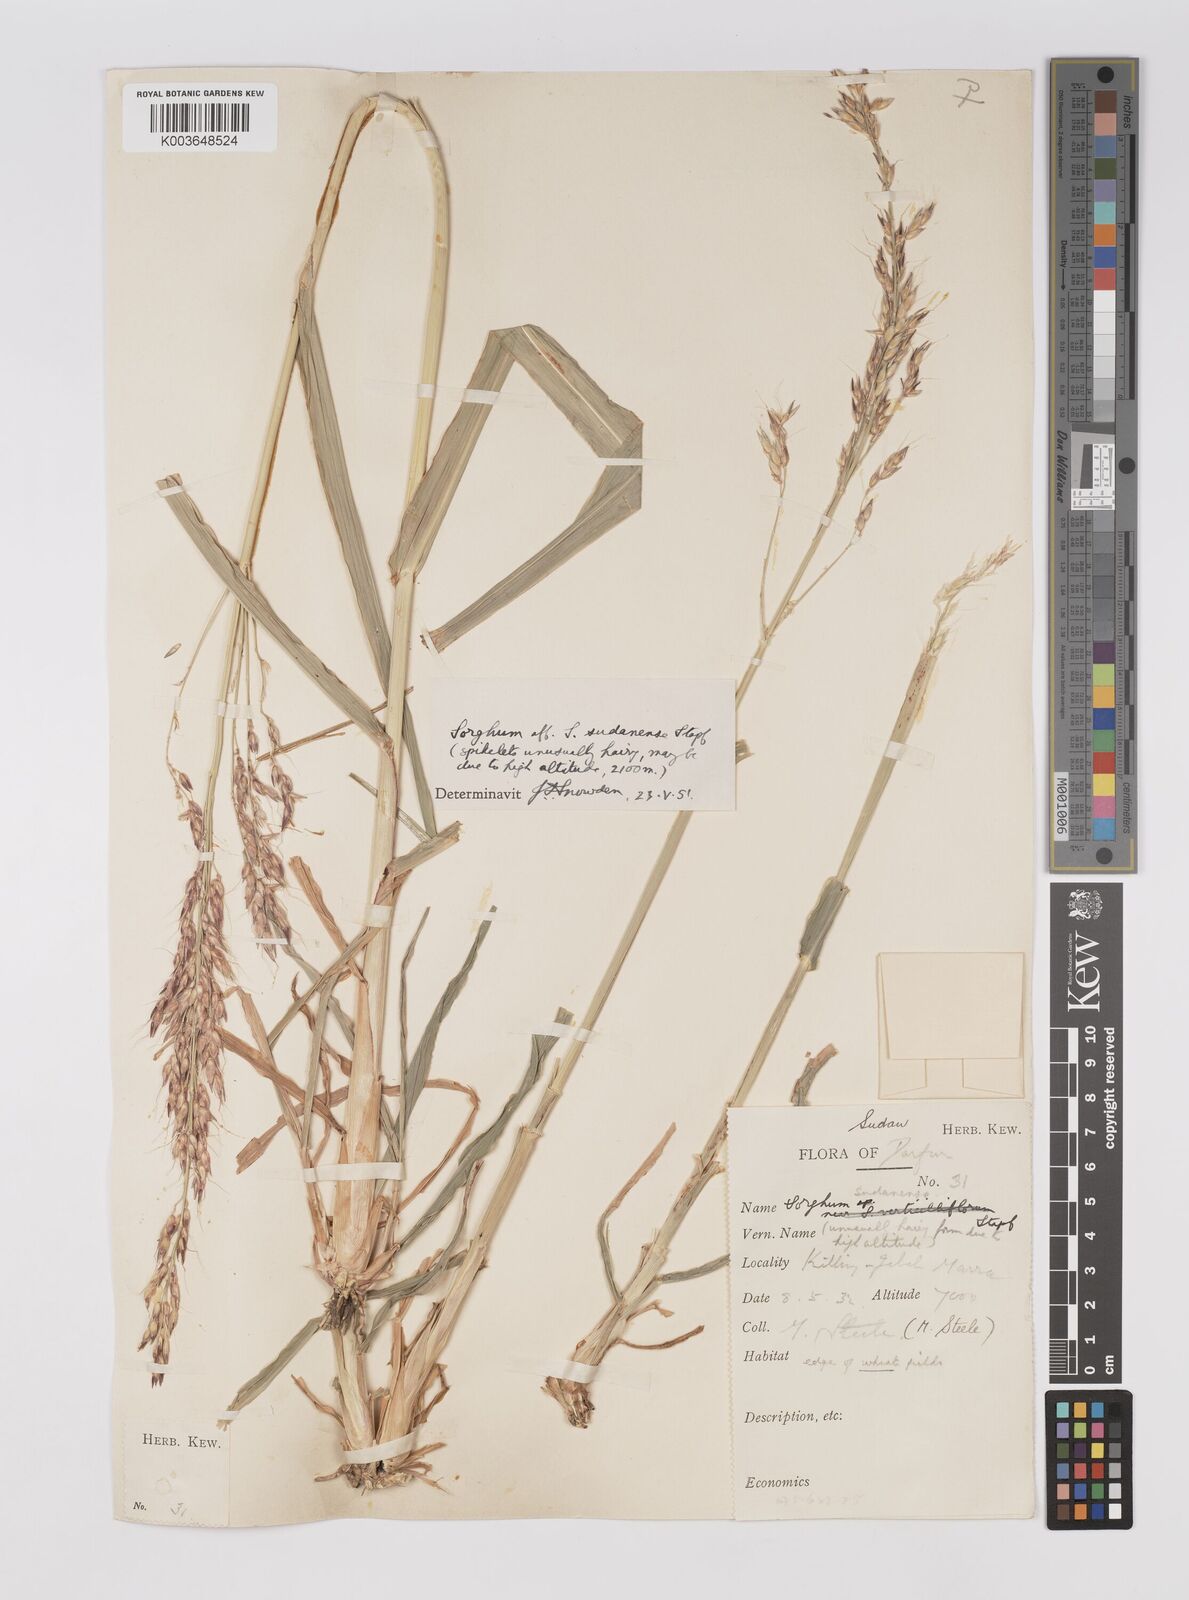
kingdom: Plantae
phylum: Tracheophyta
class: Liliopsida
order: Poales
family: Poaceae
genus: Sorghum
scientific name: Sorghum drummondii
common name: Sudangrass
